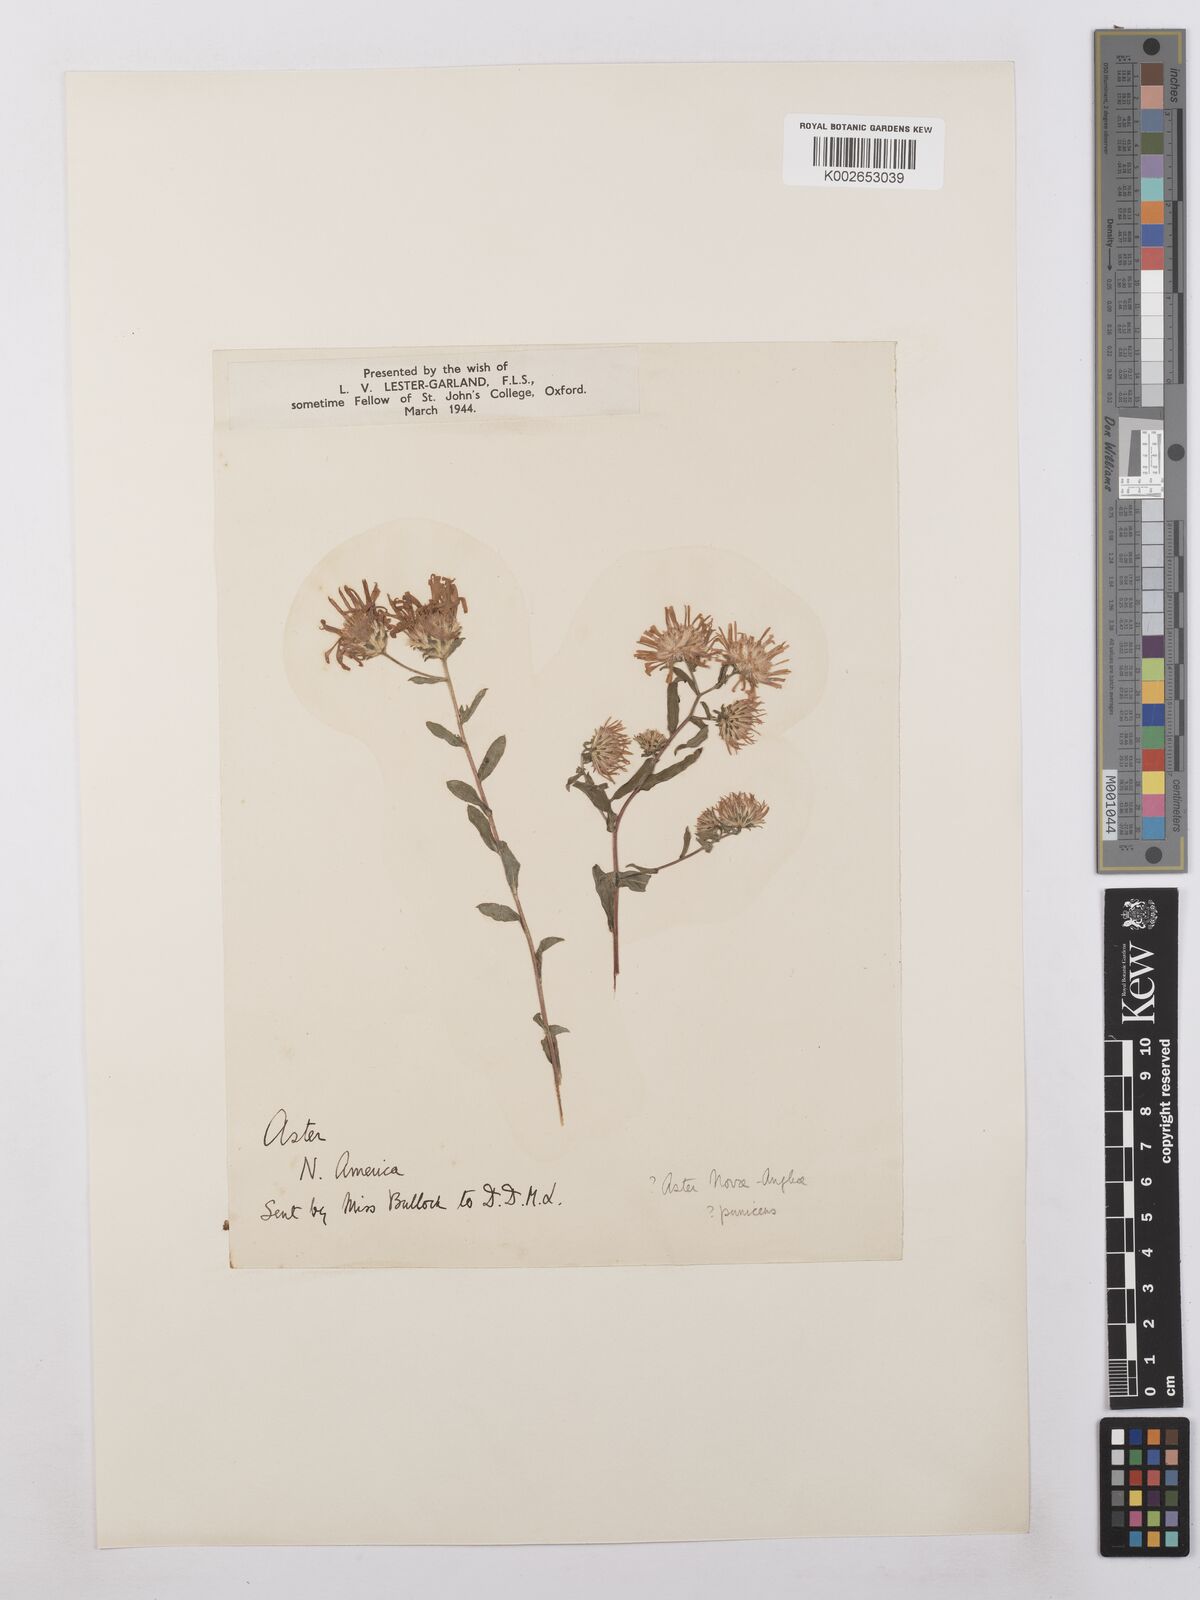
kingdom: Plantae
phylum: Tracheophyta
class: Magnoliopsida
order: Asterales
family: Asteraceae
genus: Symphyotrichum
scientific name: Symphyotrichum novae-angliae
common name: Michaelmas daisy
